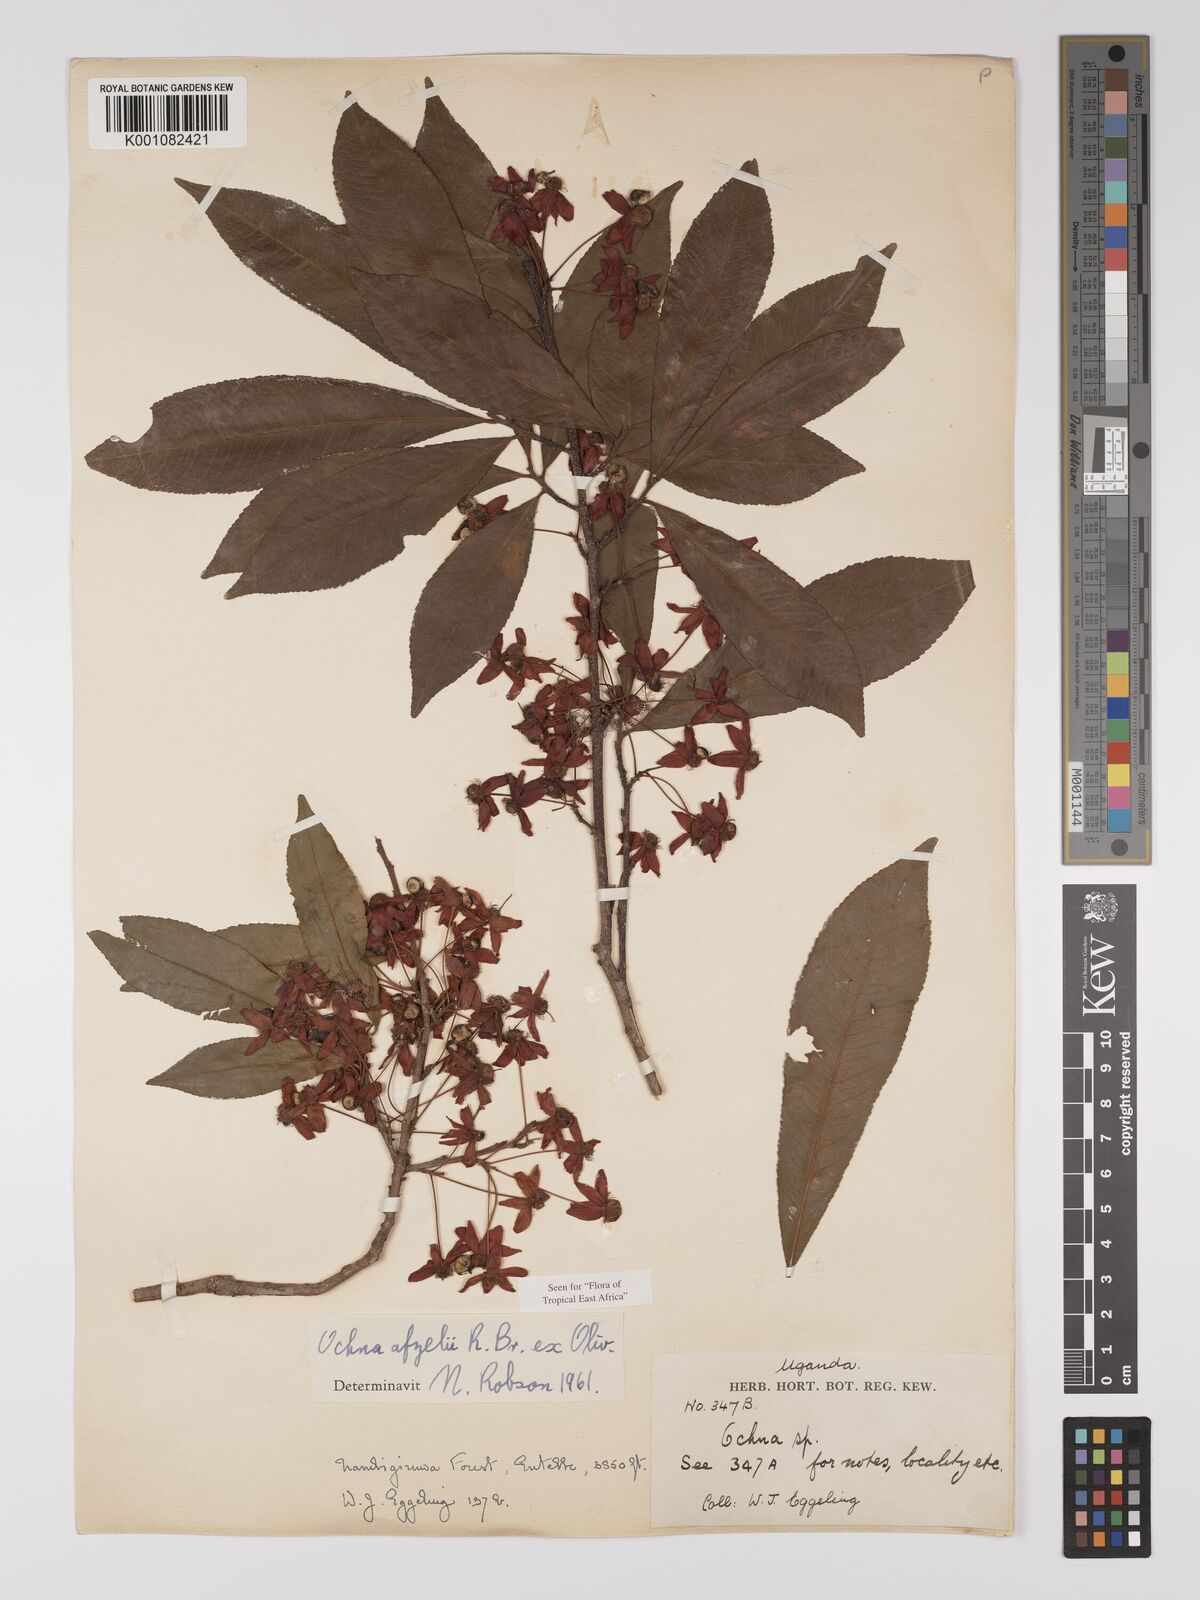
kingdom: Plantae
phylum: Tracheophyta
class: Magnoliopsida
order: Malpighiales
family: Ochnaceae
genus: Ochna
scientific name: Ochna afzelii
